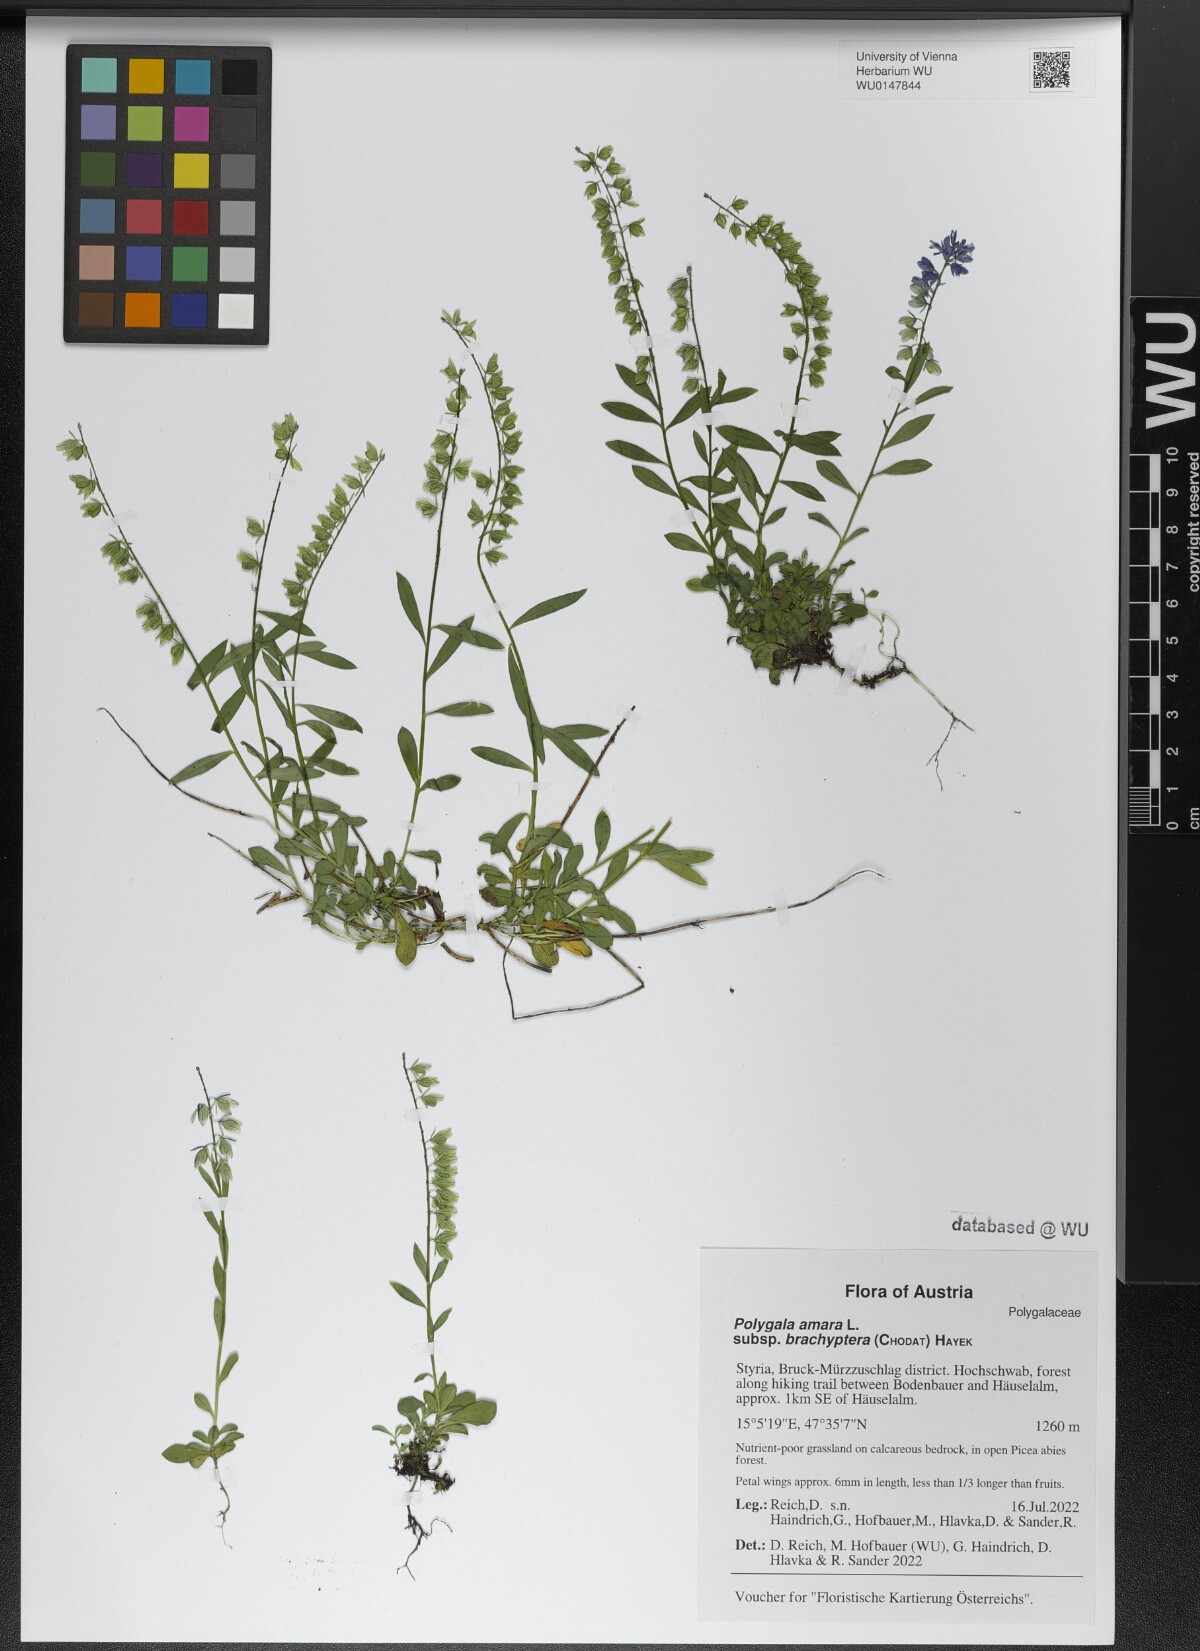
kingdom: Plantae
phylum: Tracheophyta
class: Magnoliopsida
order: Fabales
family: Polygalaceae
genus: Polygala
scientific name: Polygala amara
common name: Milkwort
